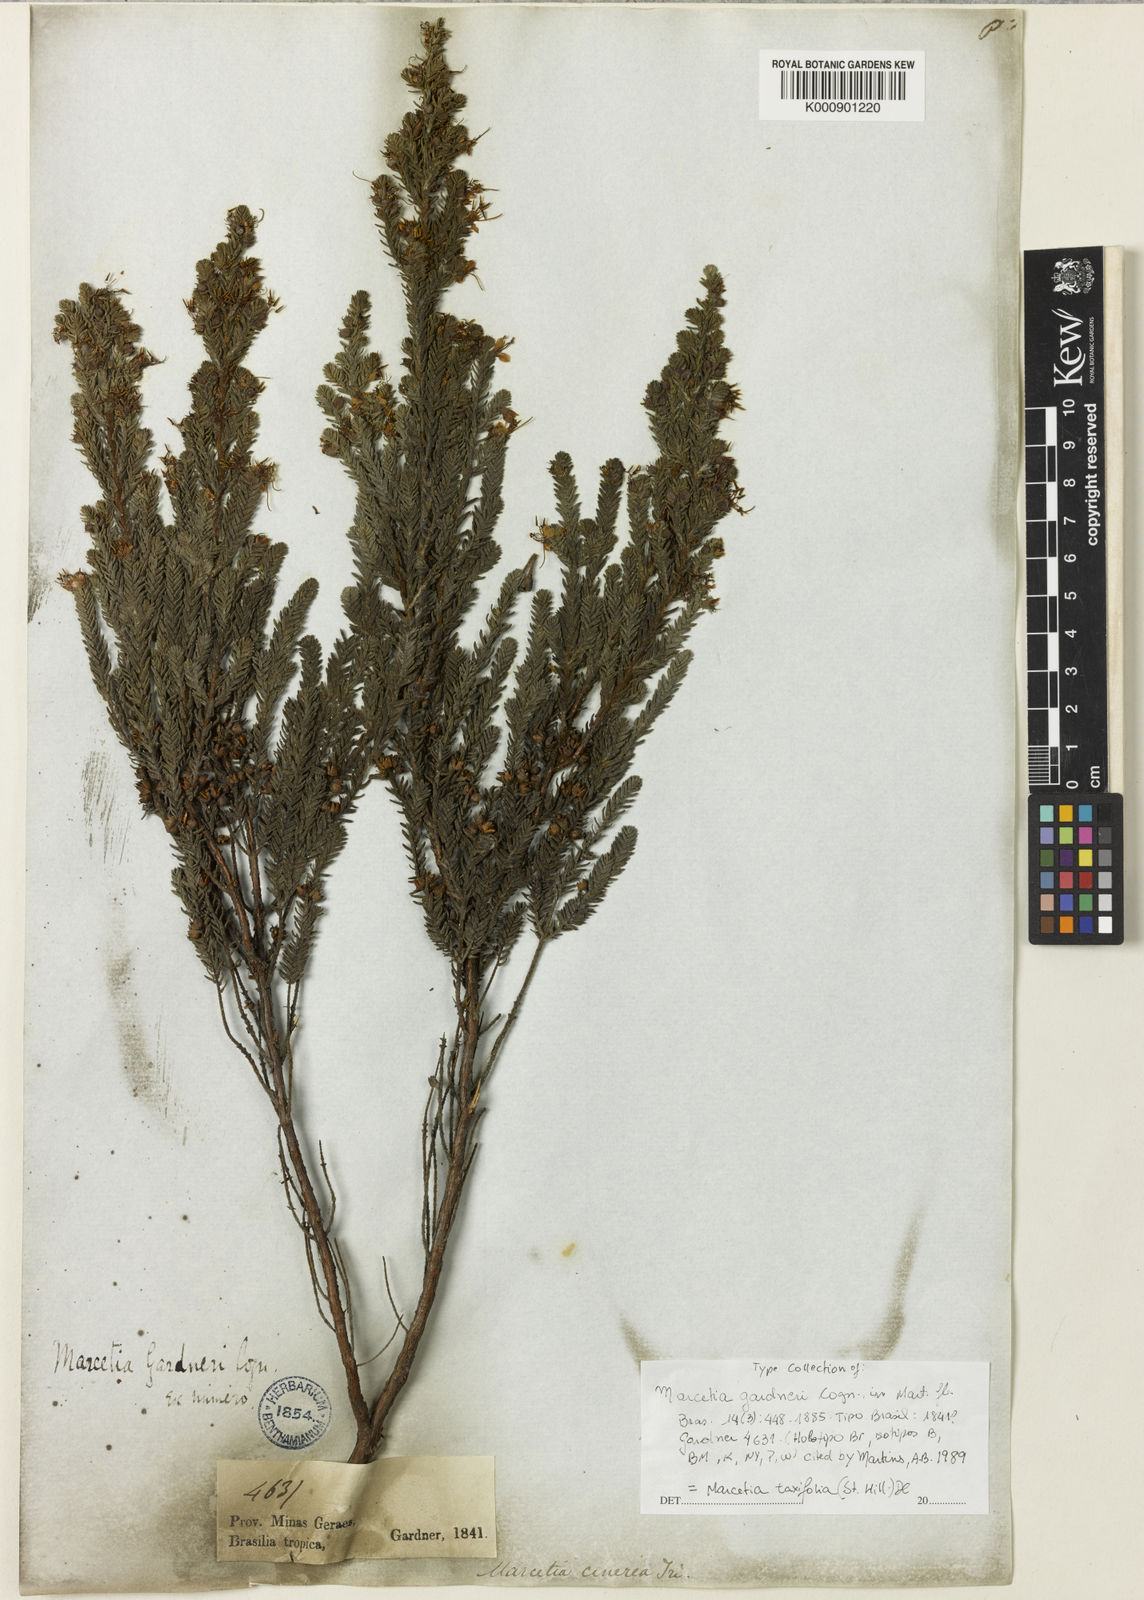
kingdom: Plantae
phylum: Tracheophyta
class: Magnoliopsida
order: Myrtales
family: Melastomataceae
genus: Marcetia
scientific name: Marcetia taxifolia
